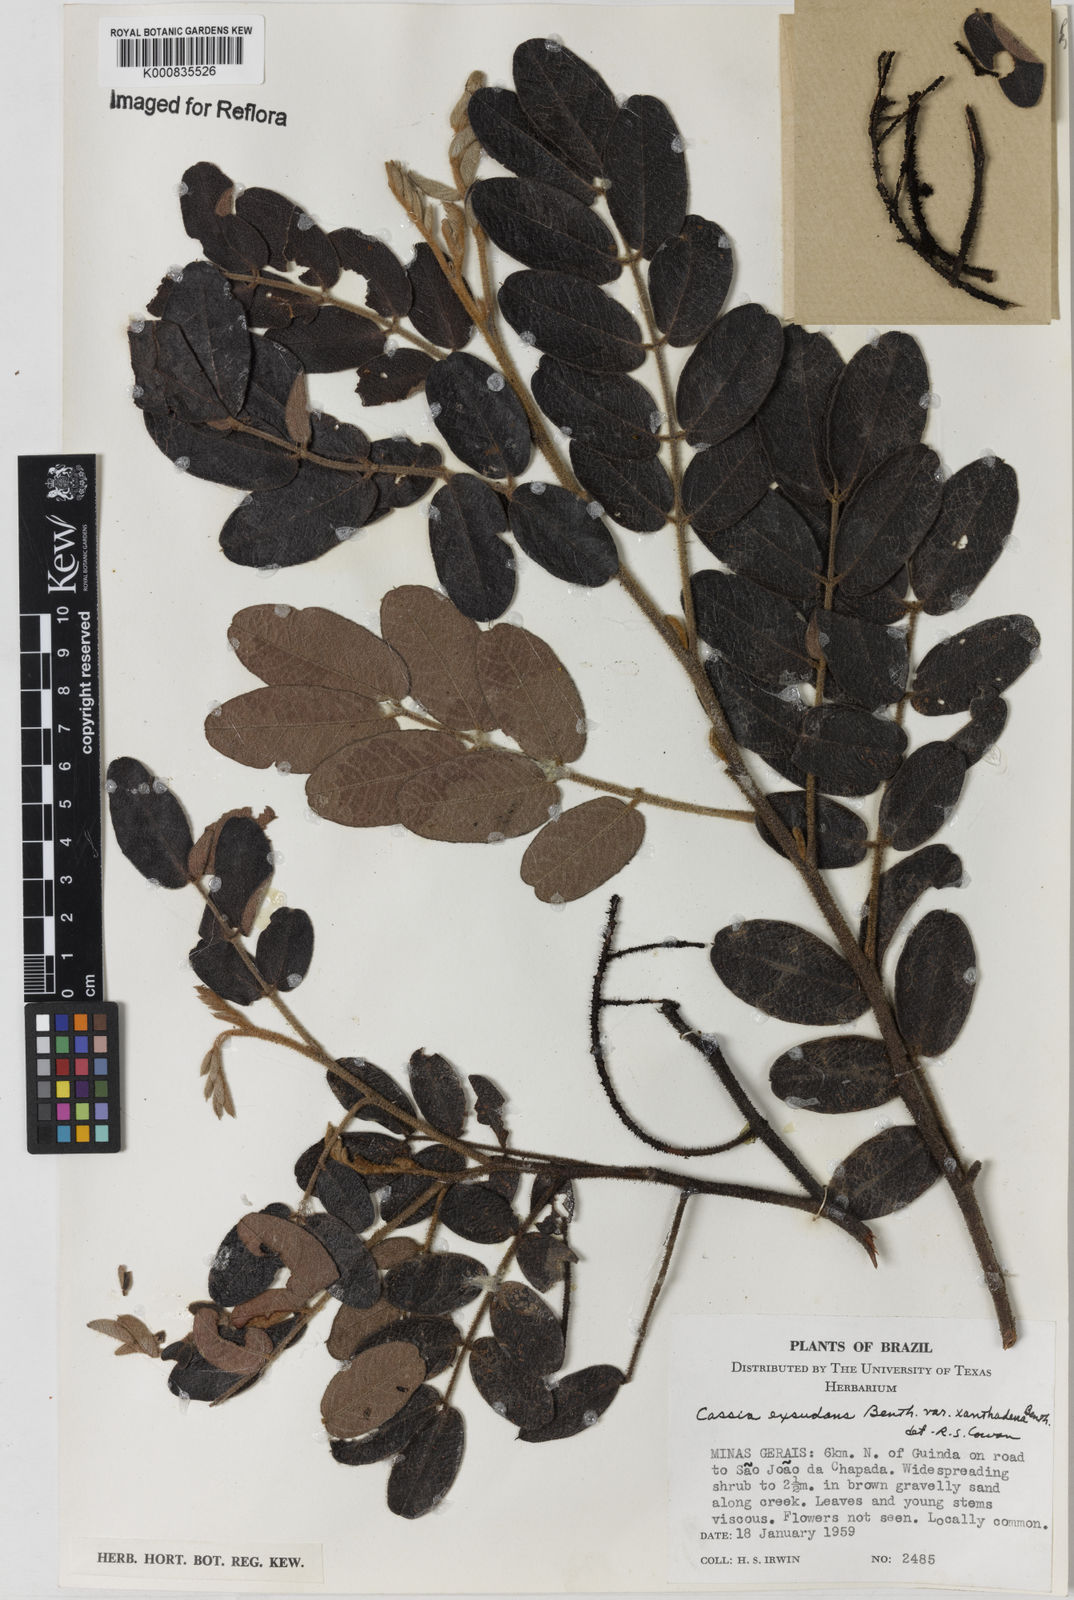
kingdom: Plantae
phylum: Tracheophyta
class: Magnoliopsida
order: Fabales
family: Fabaceae
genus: Chamaecrista
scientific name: Chamaecrista exsudans
